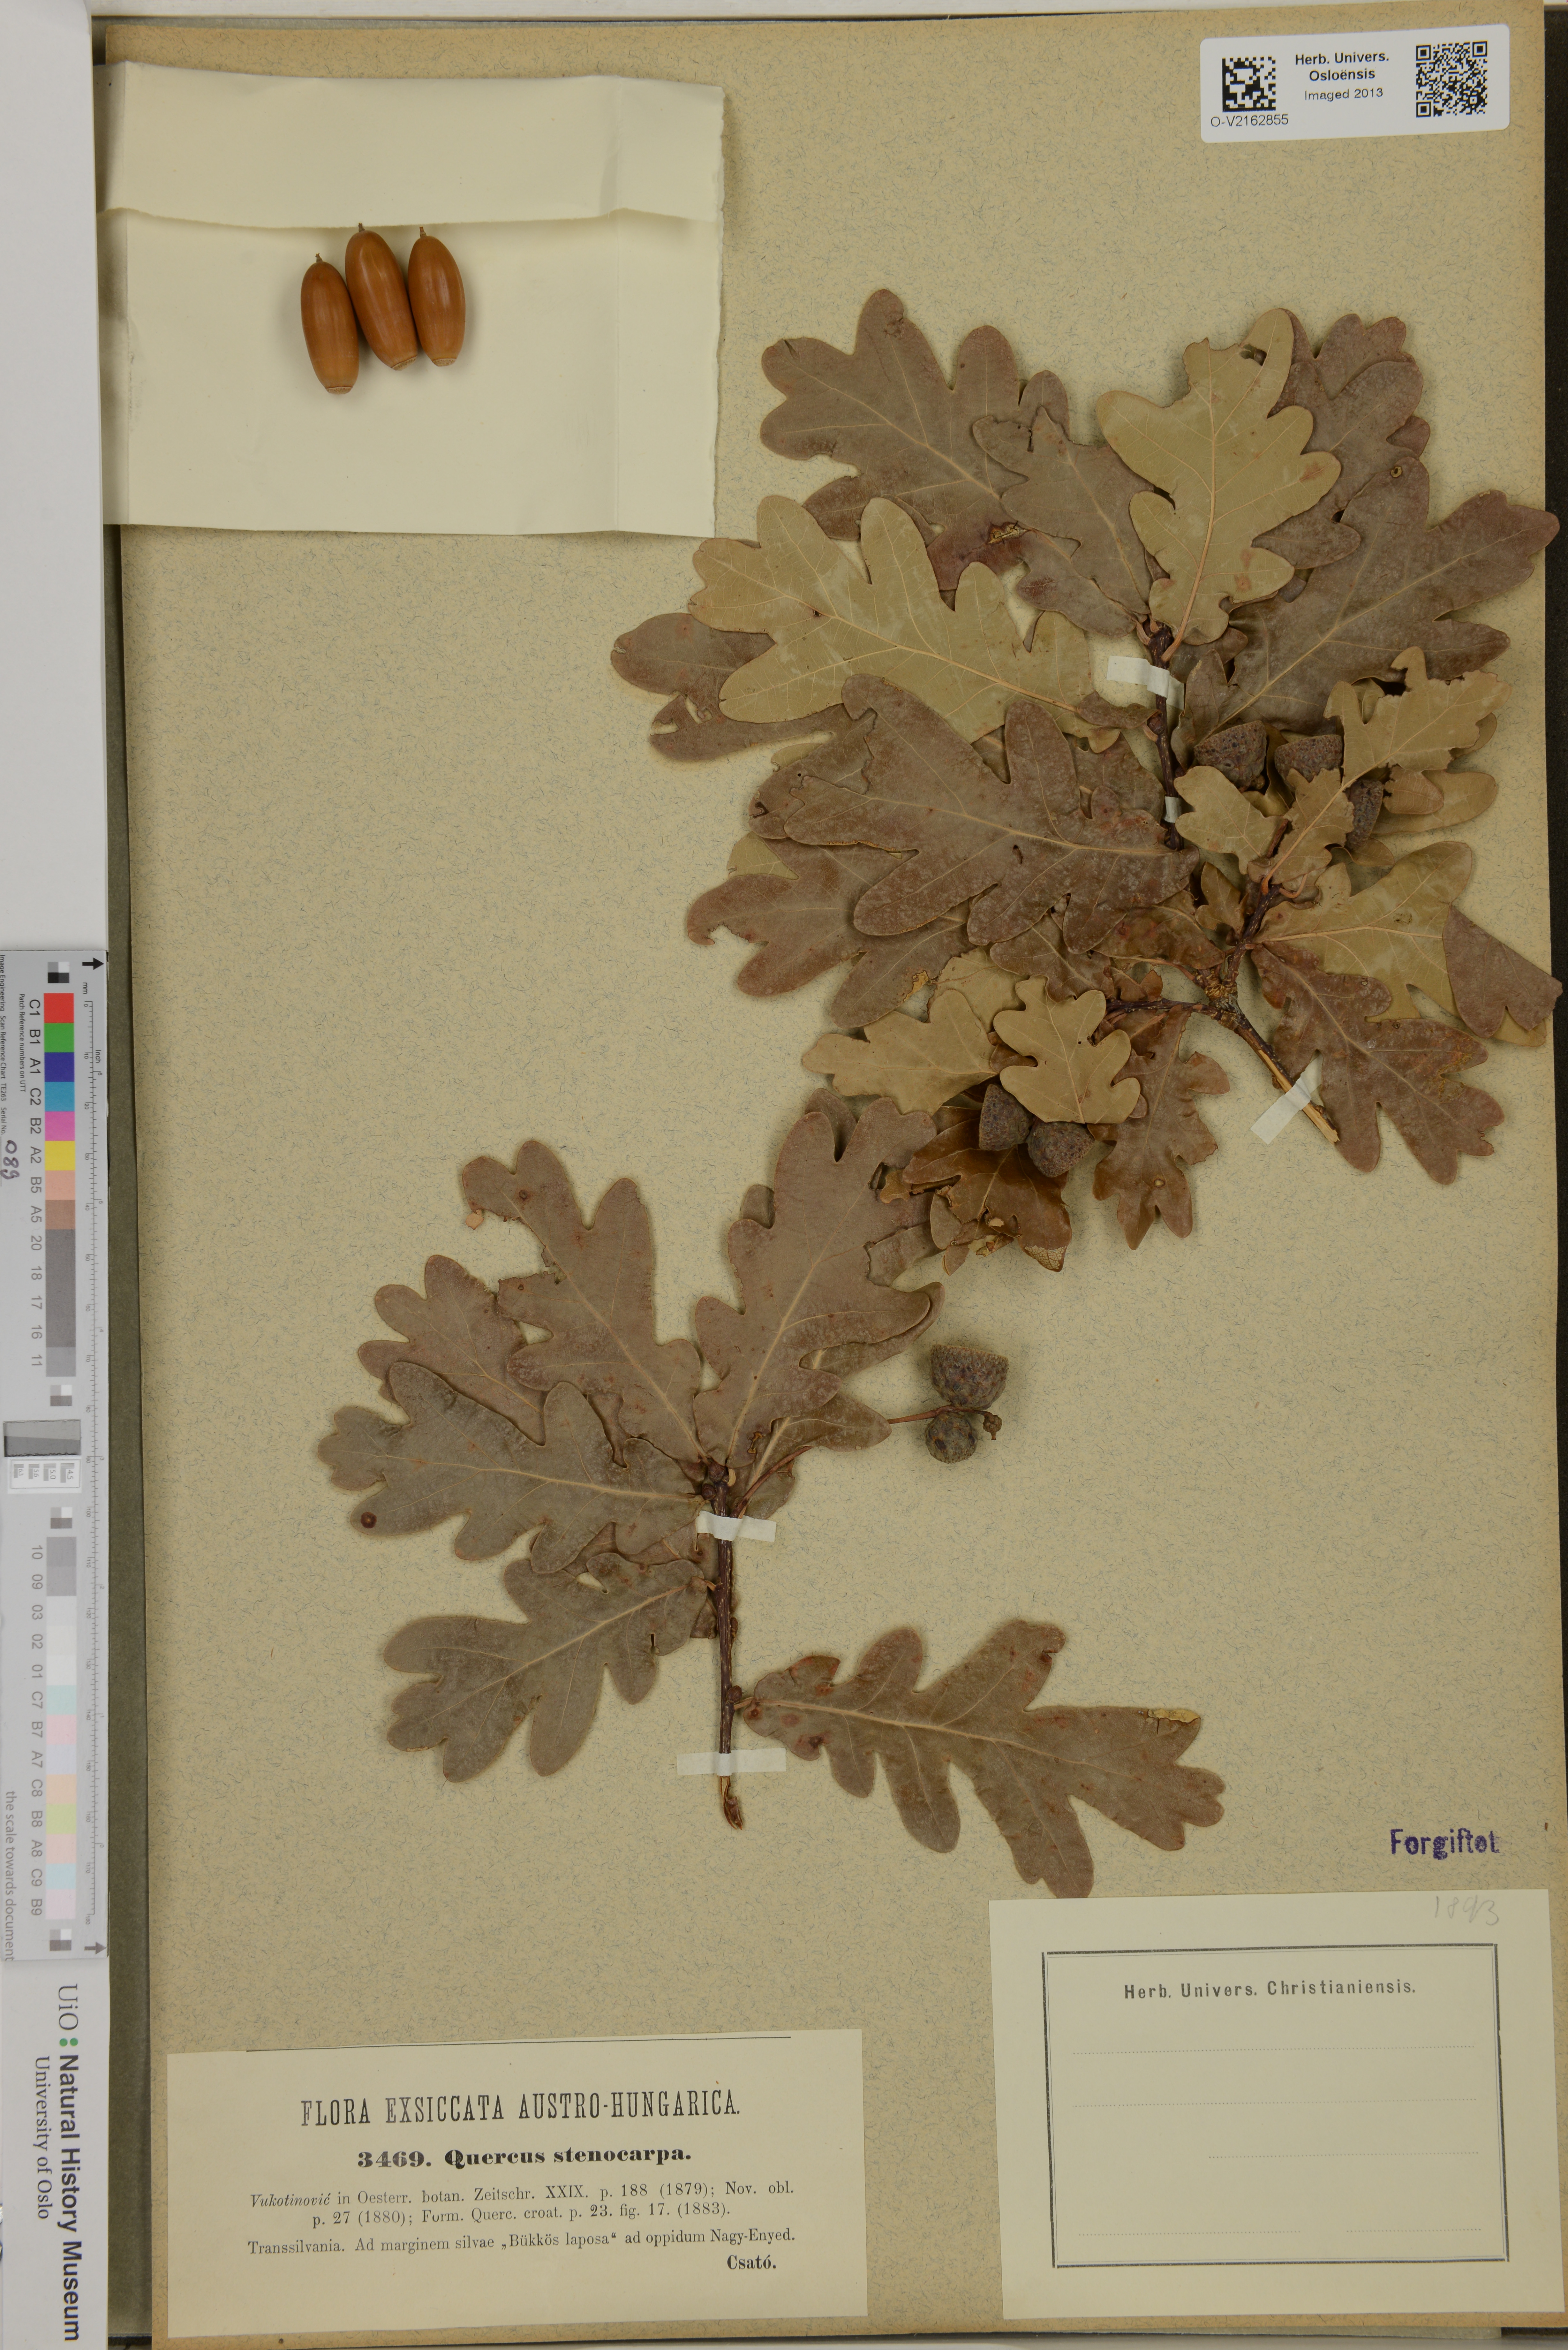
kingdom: Plantae
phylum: Tracheophyta
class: Magnoliopsida
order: Fagales
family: Fagaceae
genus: Quercus
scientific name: Quercus pubescens
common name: Downy oak
